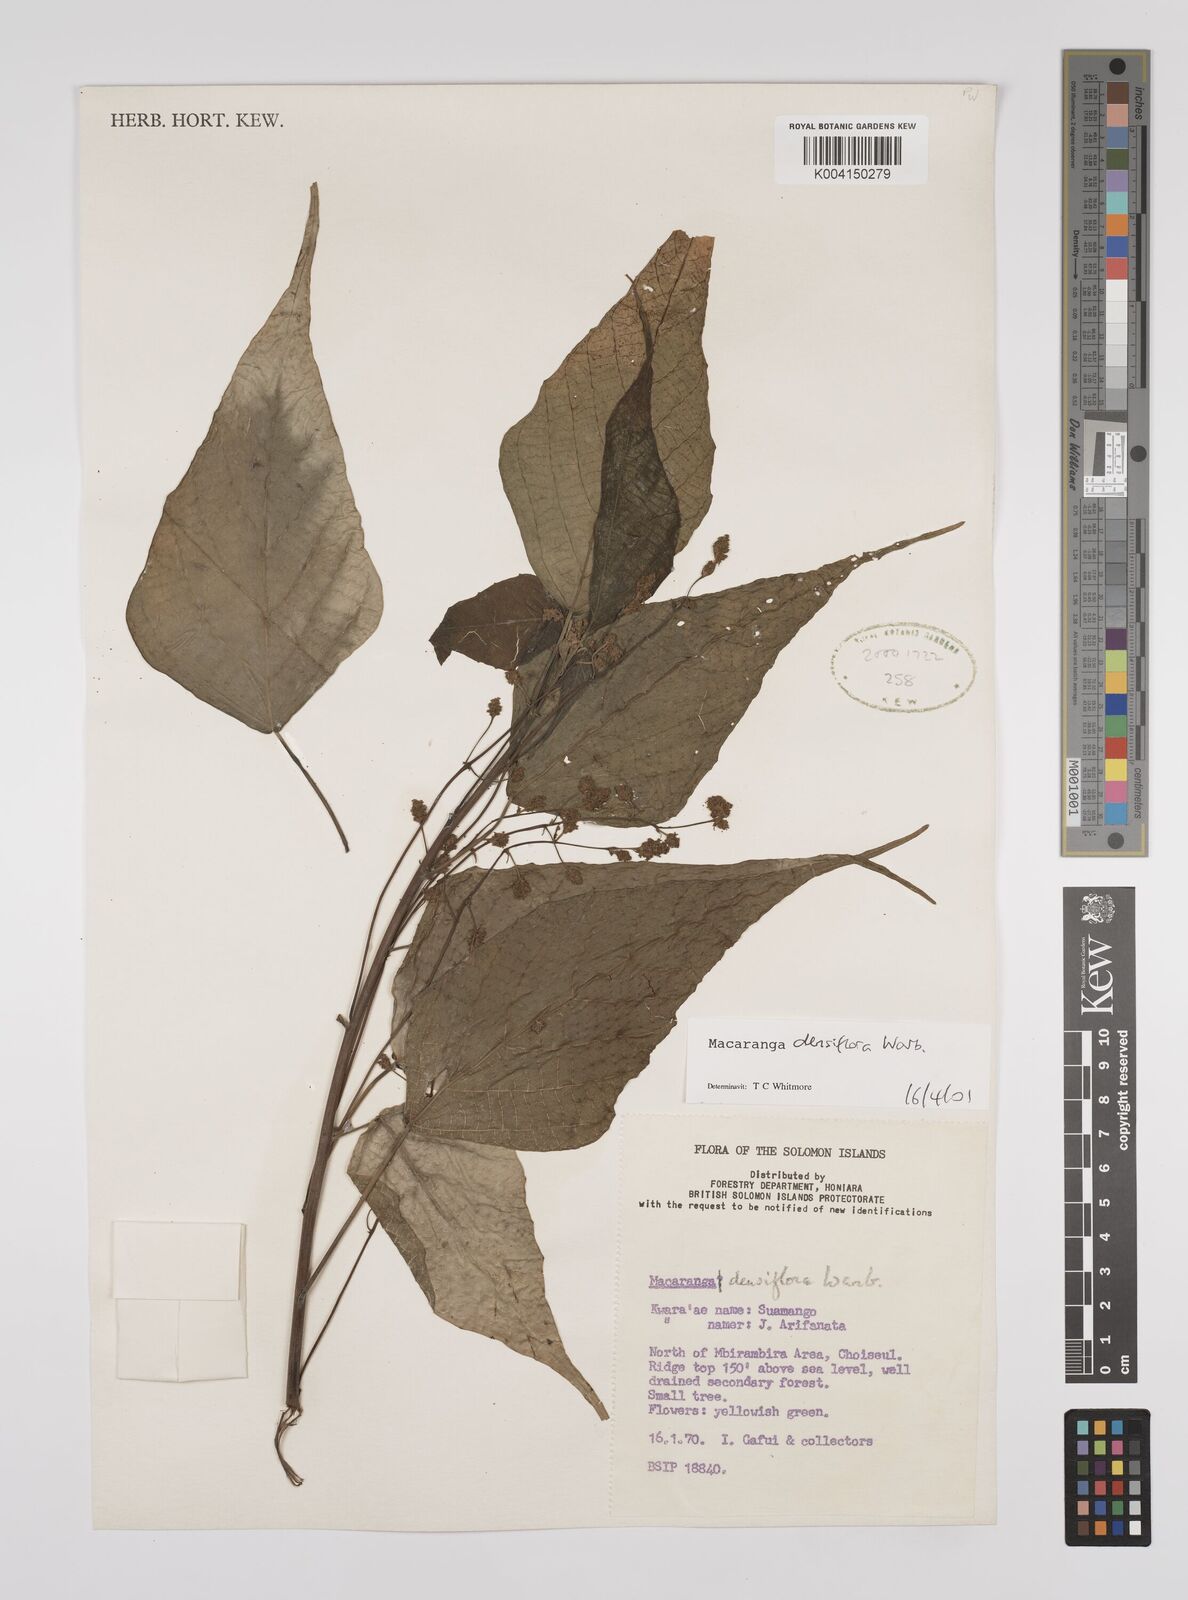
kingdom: Plantae
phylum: Tracheophyta
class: Magnoliopsida
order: Malpighiales
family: Euphorbiaceae
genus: Macaranga
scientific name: Macaranga densiflora
